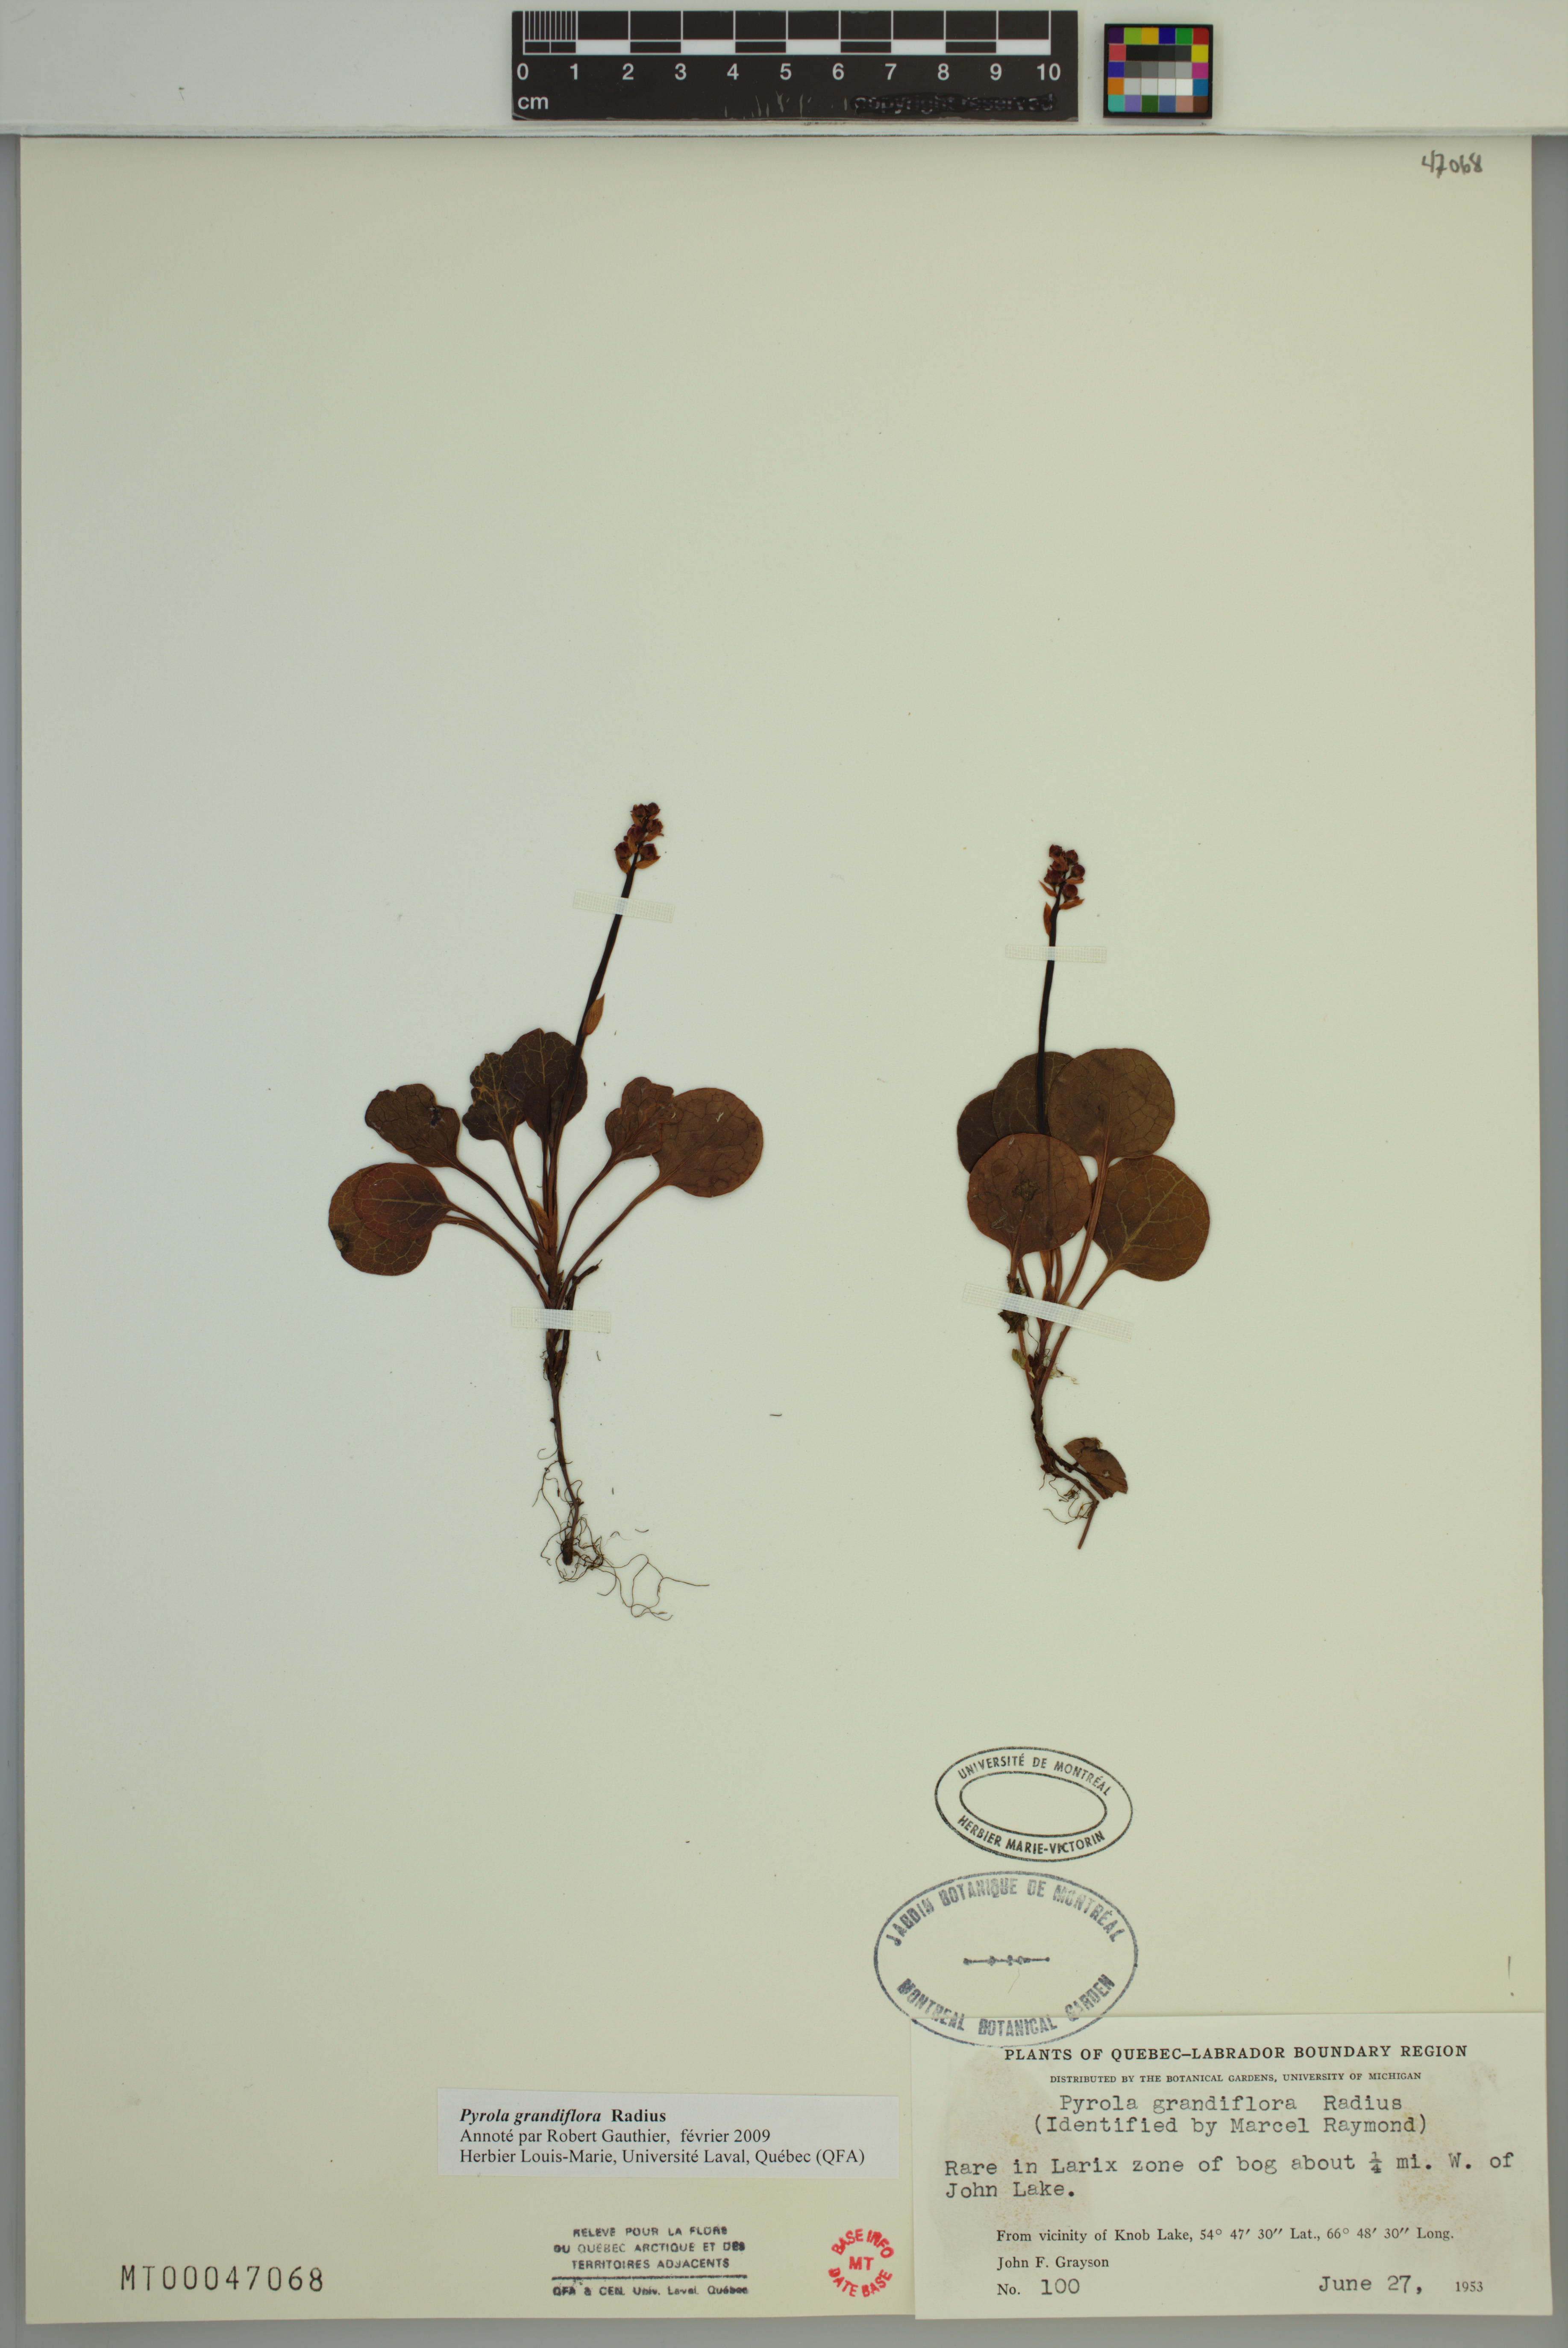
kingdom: Plantae
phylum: Tracheophyta
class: Magnoliopsida
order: Ericales
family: Ericaceae
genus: Pyrola
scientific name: Pyrola grandiflora
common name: Arctic pyrola
